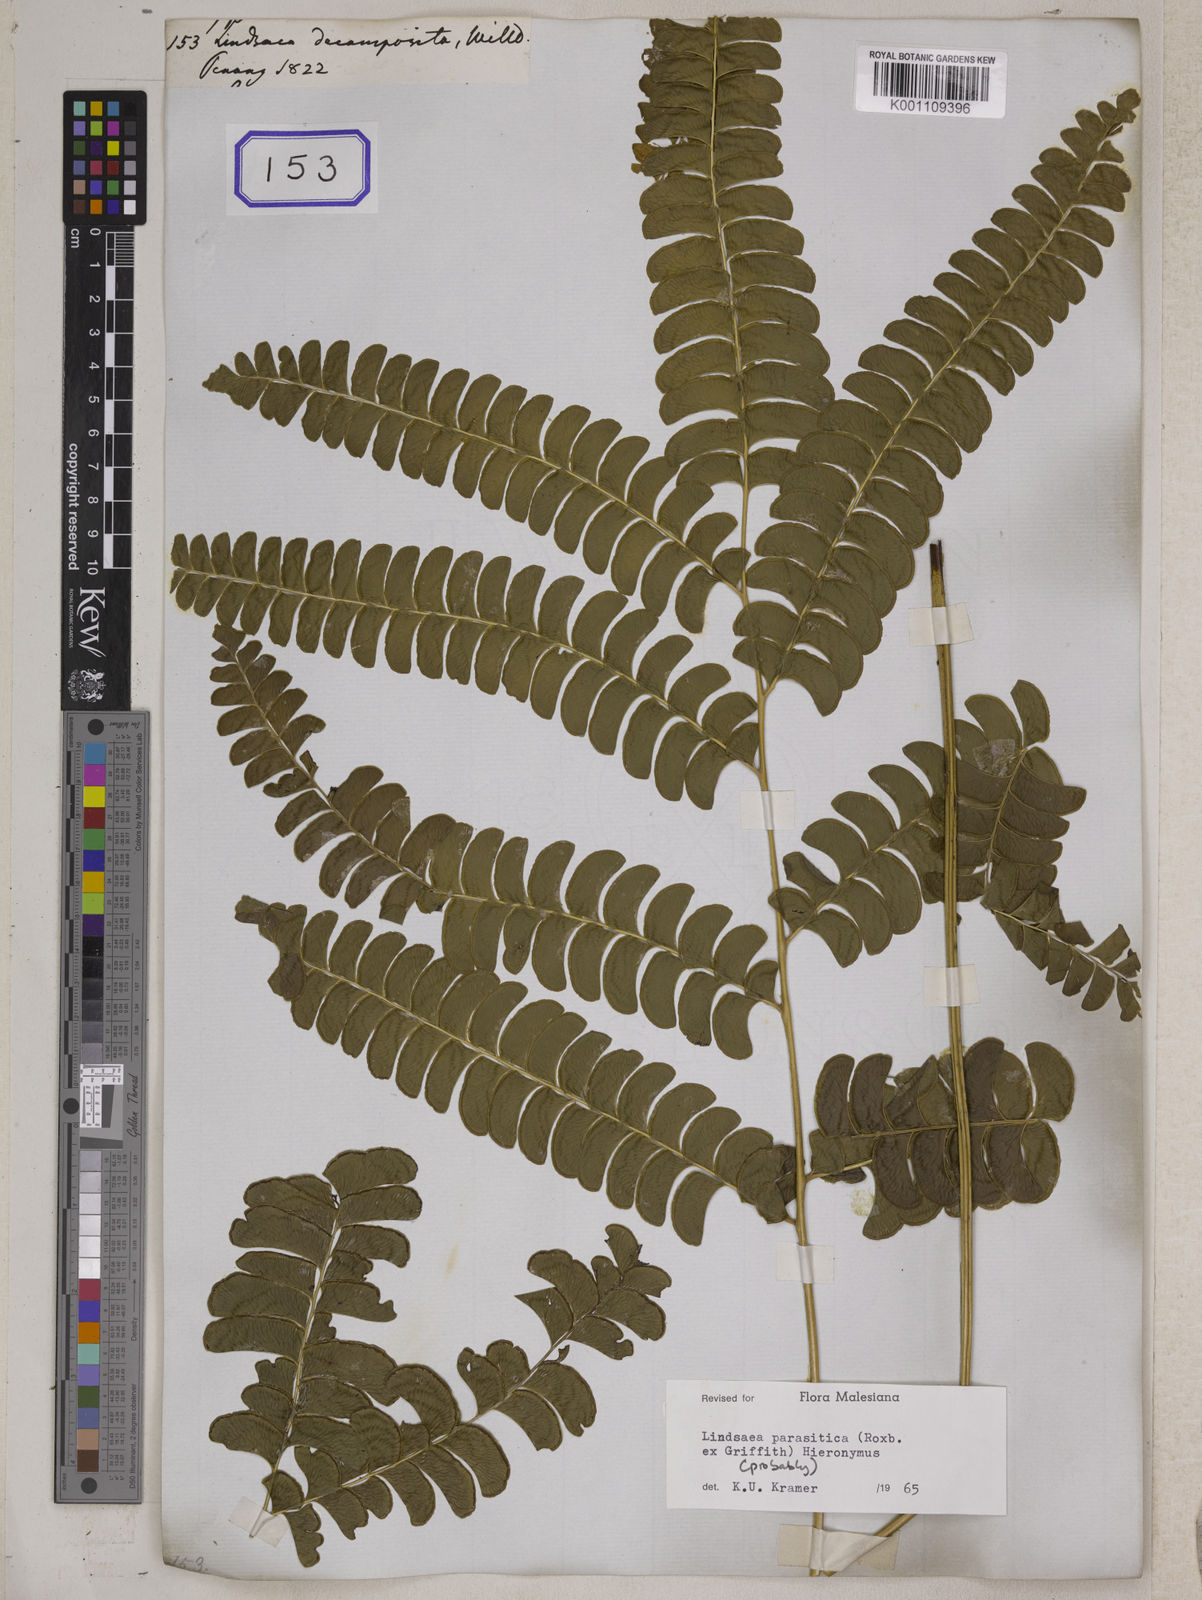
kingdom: Plantae
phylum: Tracheophyta
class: Polypodiopsida
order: Polypodiales
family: Lindsaeaceae
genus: Lindsaea
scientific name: Lindsaea
